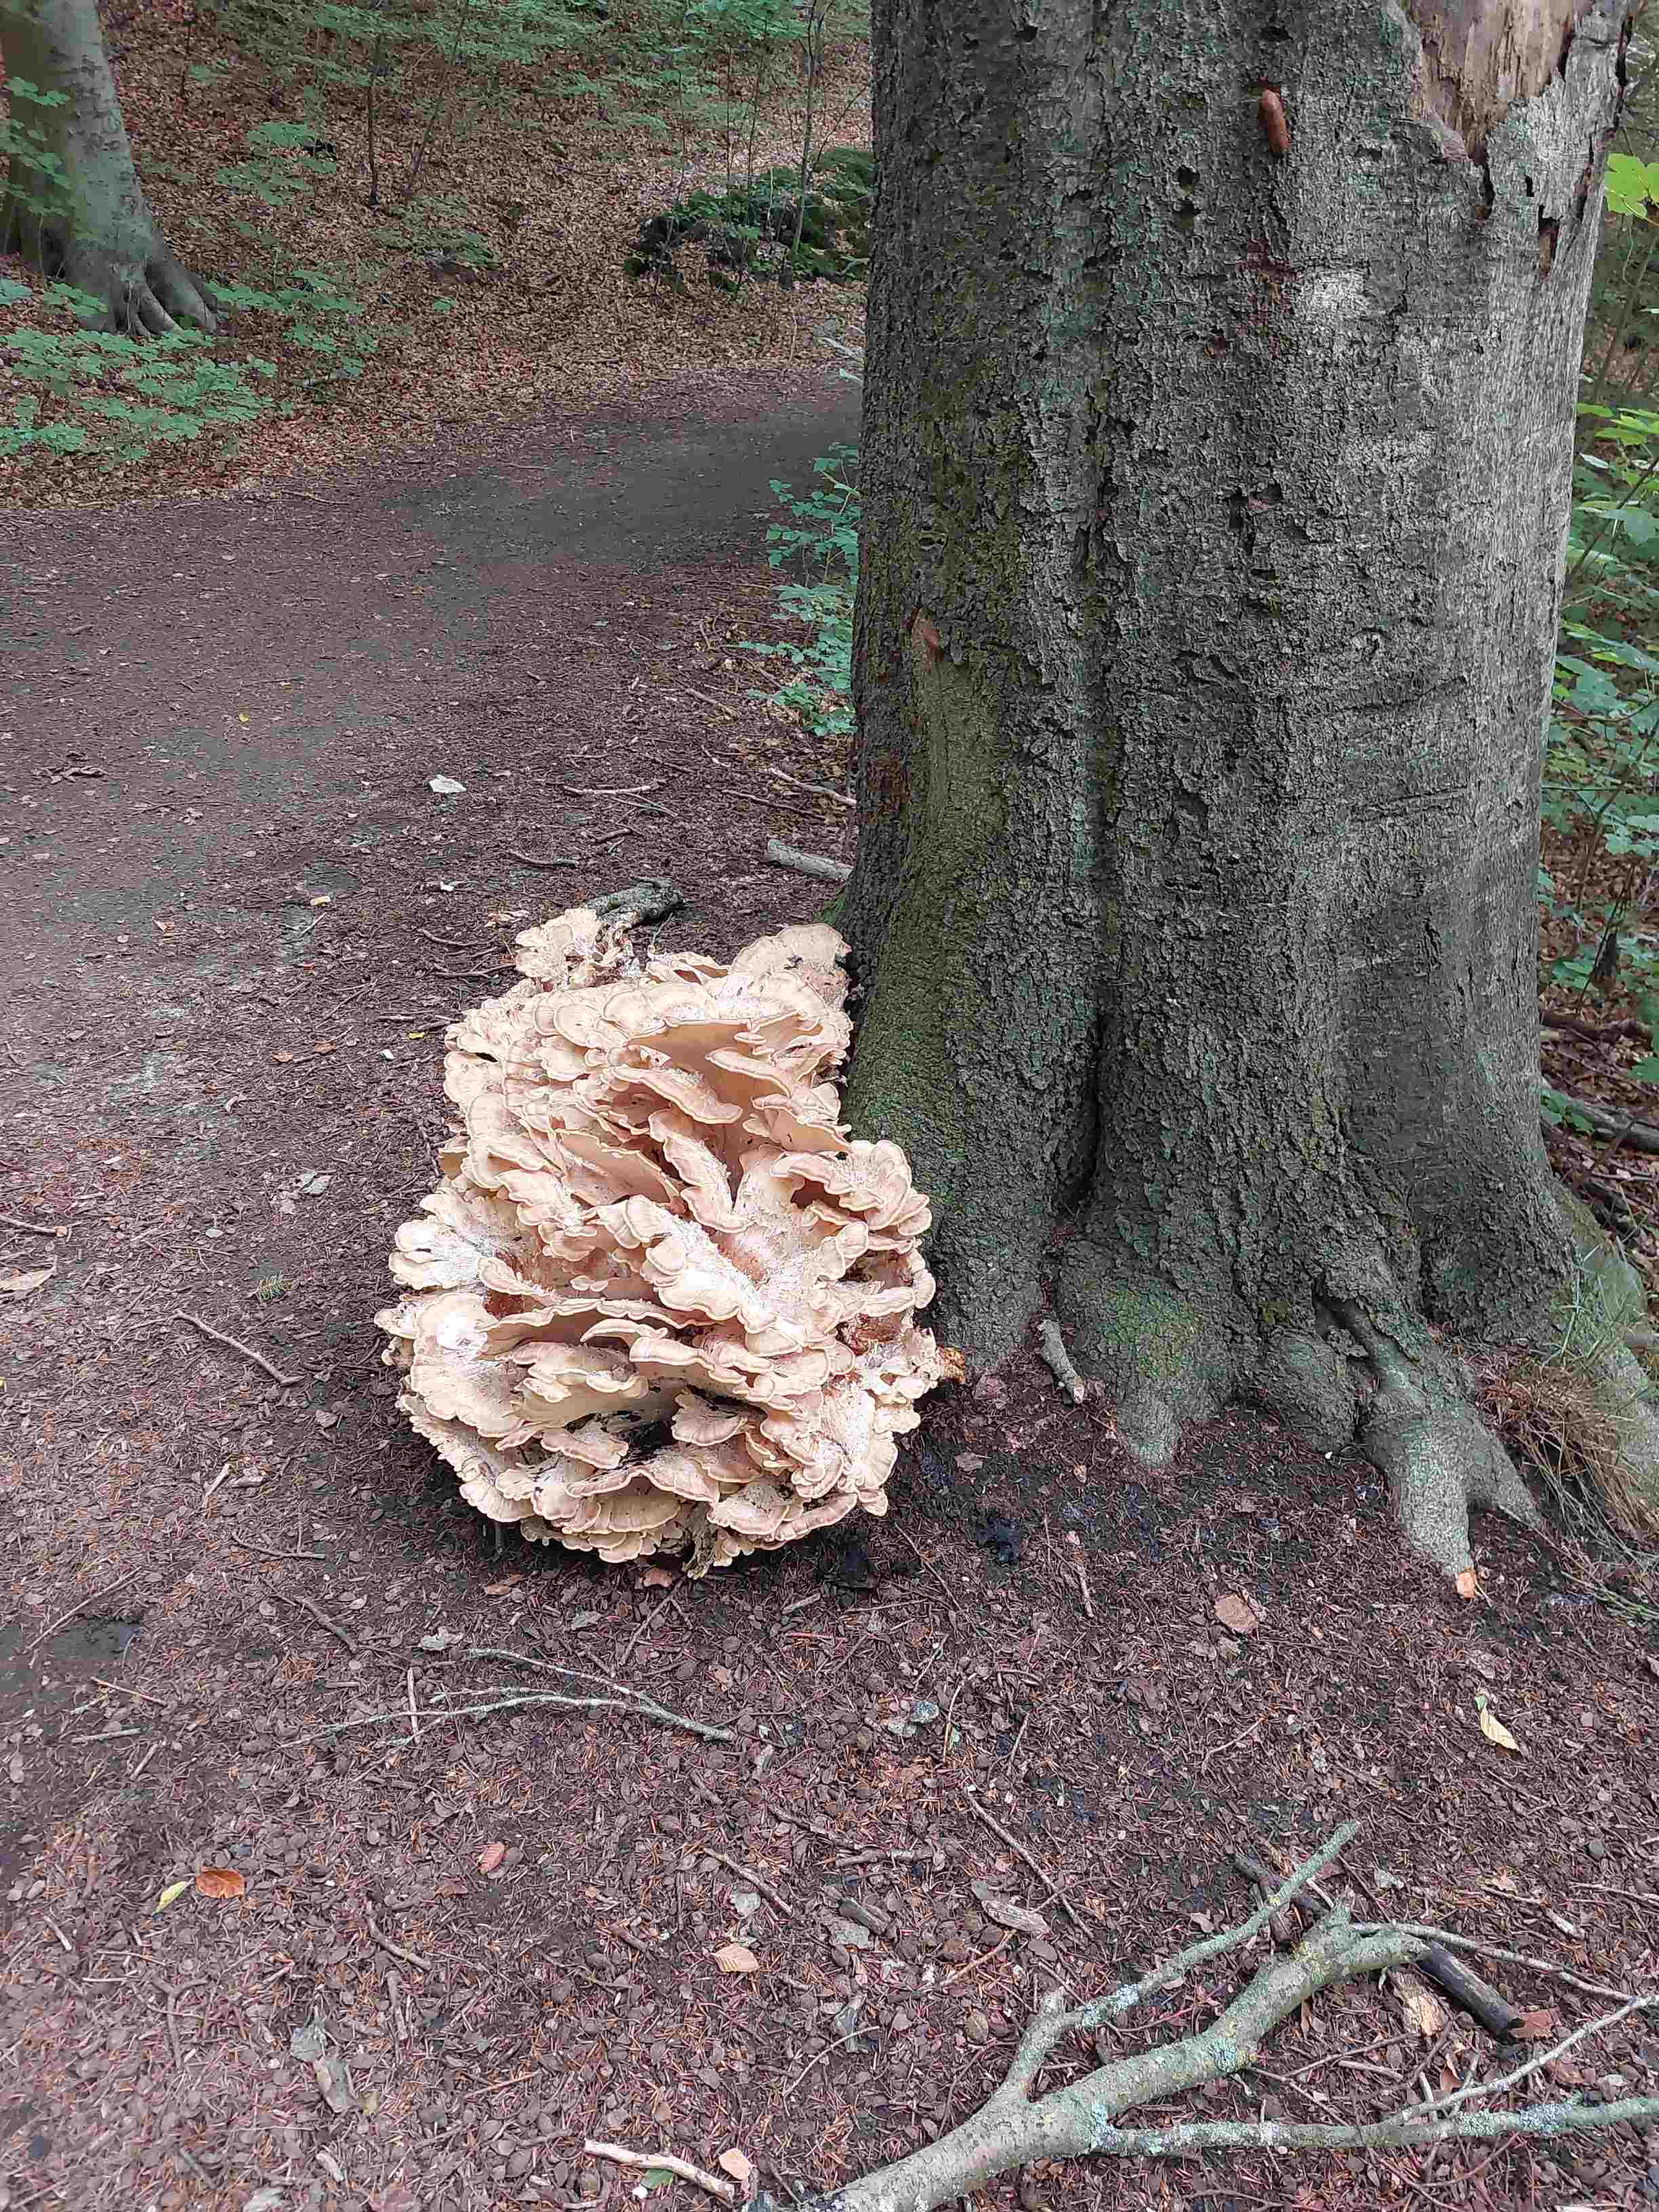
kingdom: Fungi
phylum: Basidiomycota
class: Agaricomycetes
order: Polyporales
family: Meripilaceae
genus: Meripilus
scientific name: Meripilus giganteus
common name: kæmpeporesvamp
